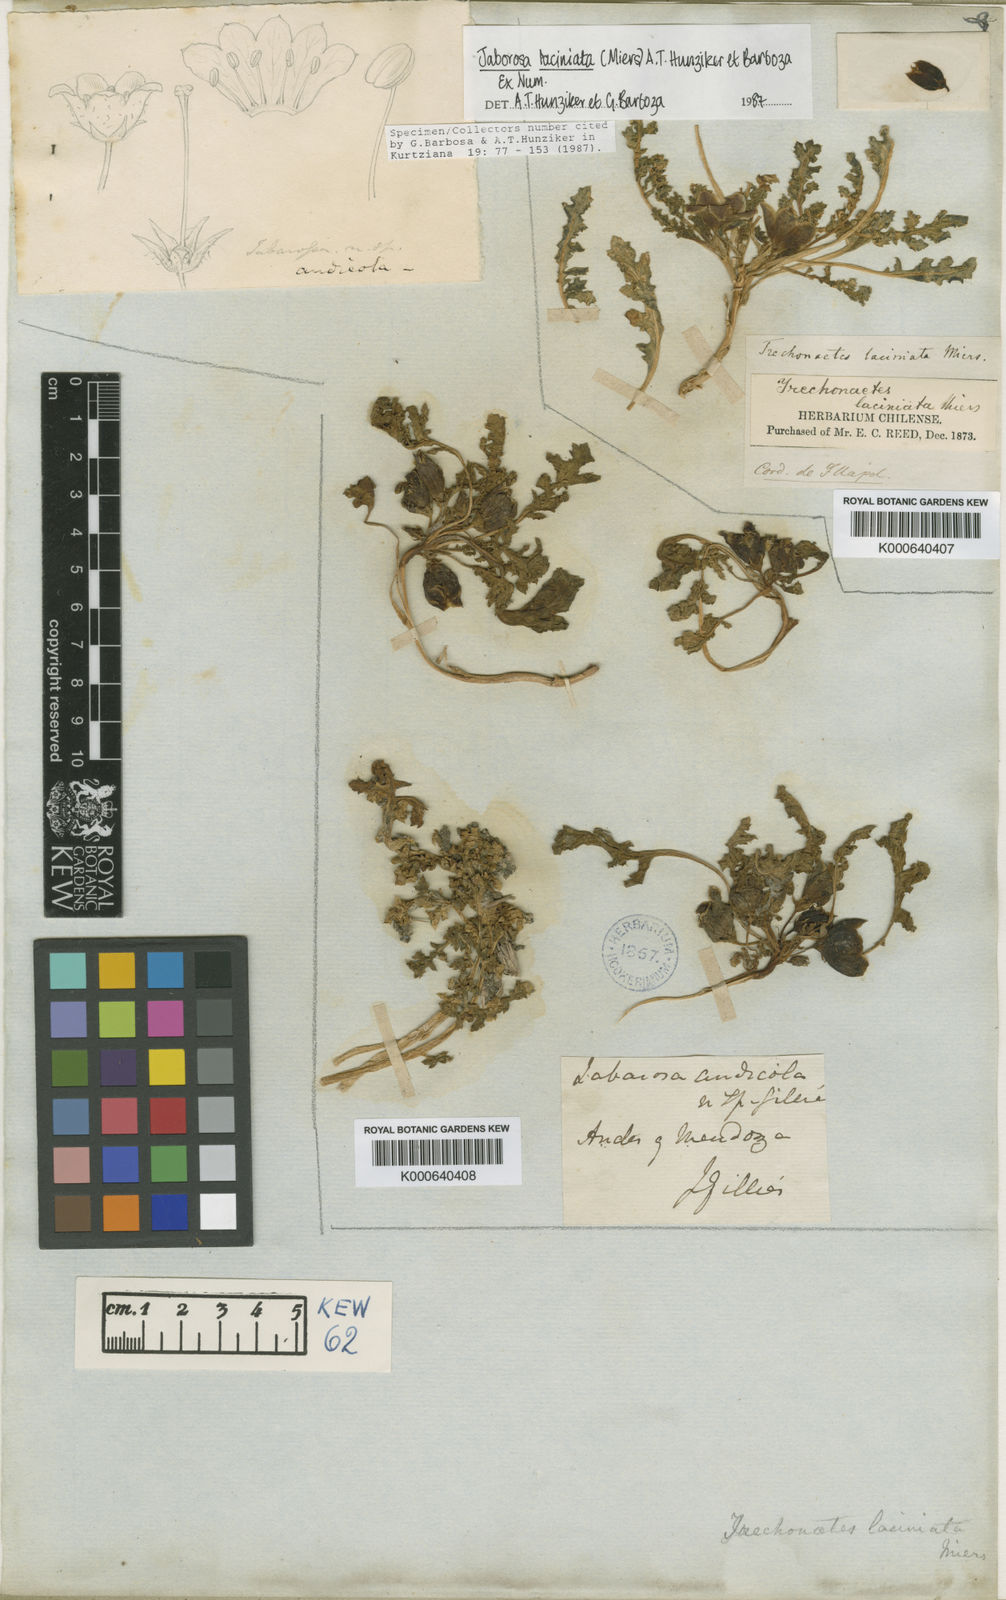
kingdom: Plantae
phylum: Tracheophyta
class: Magnoliopsida
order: Solanales
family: Solanaceae
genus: Jaborosa
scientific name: Jaborosa laciniata
